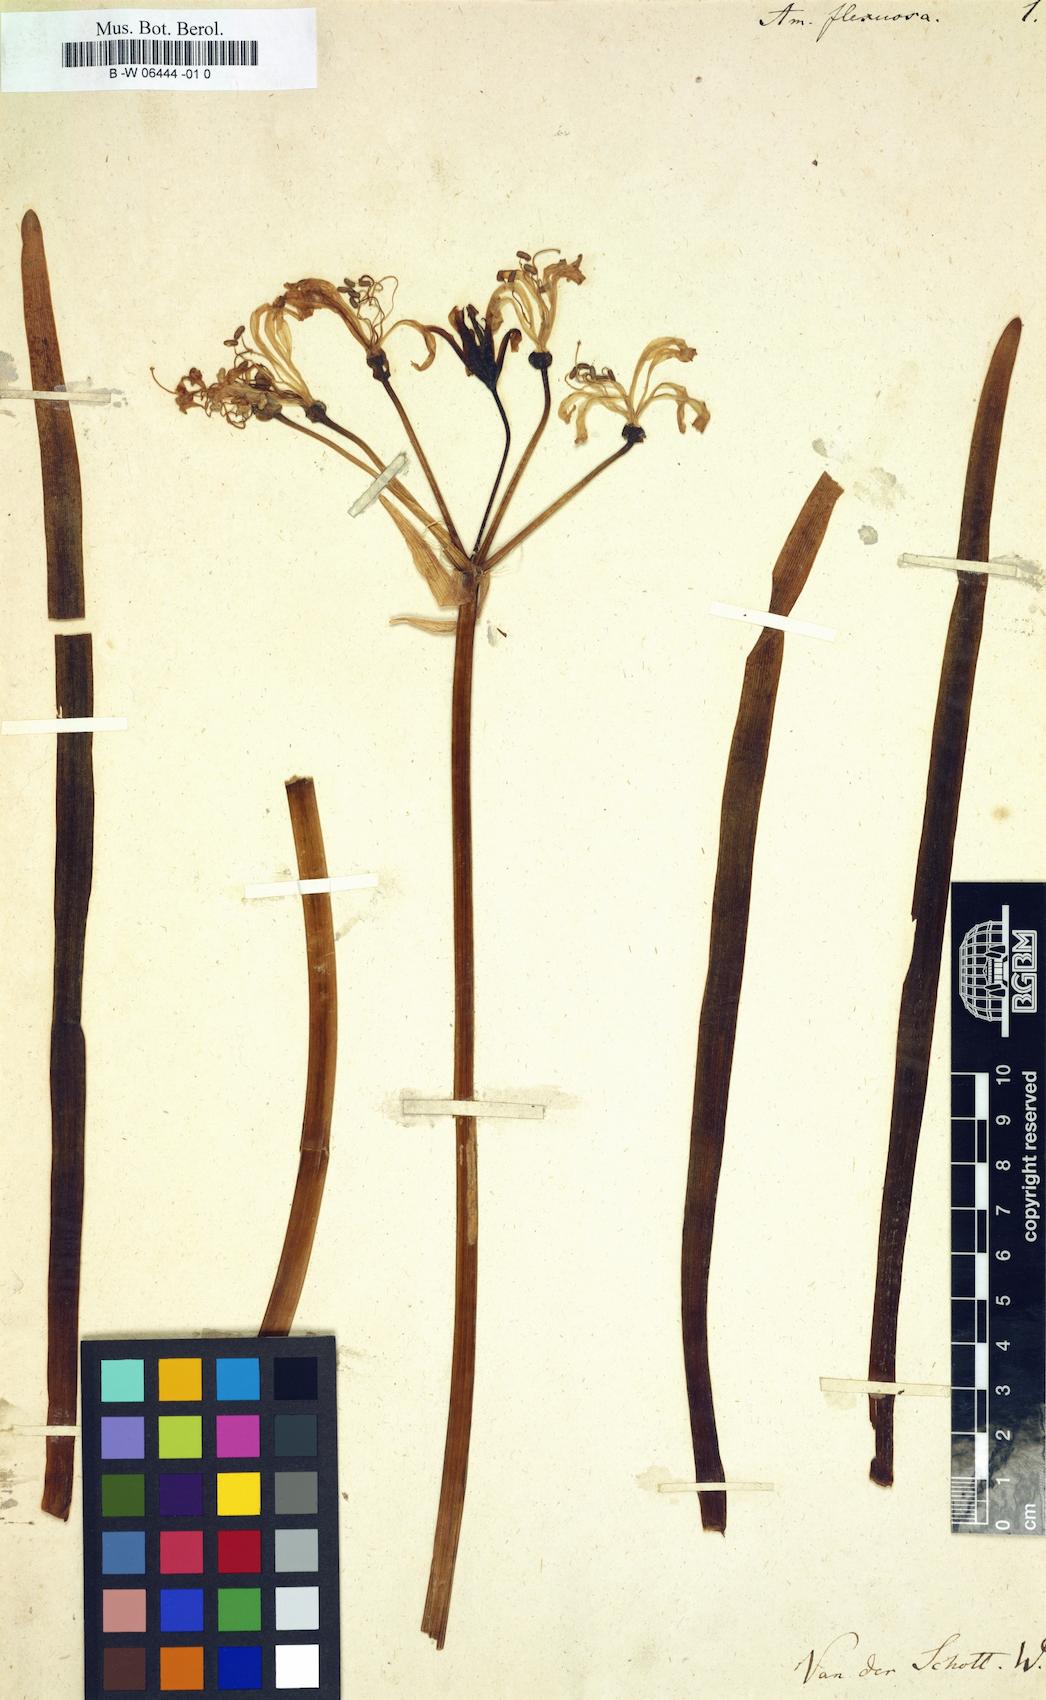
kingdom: Plantae
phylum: Tracheophyta
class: Liliopsida
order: Asparagales
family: Amaryllidaceae
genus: Nerine
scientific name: Nerine undulata
